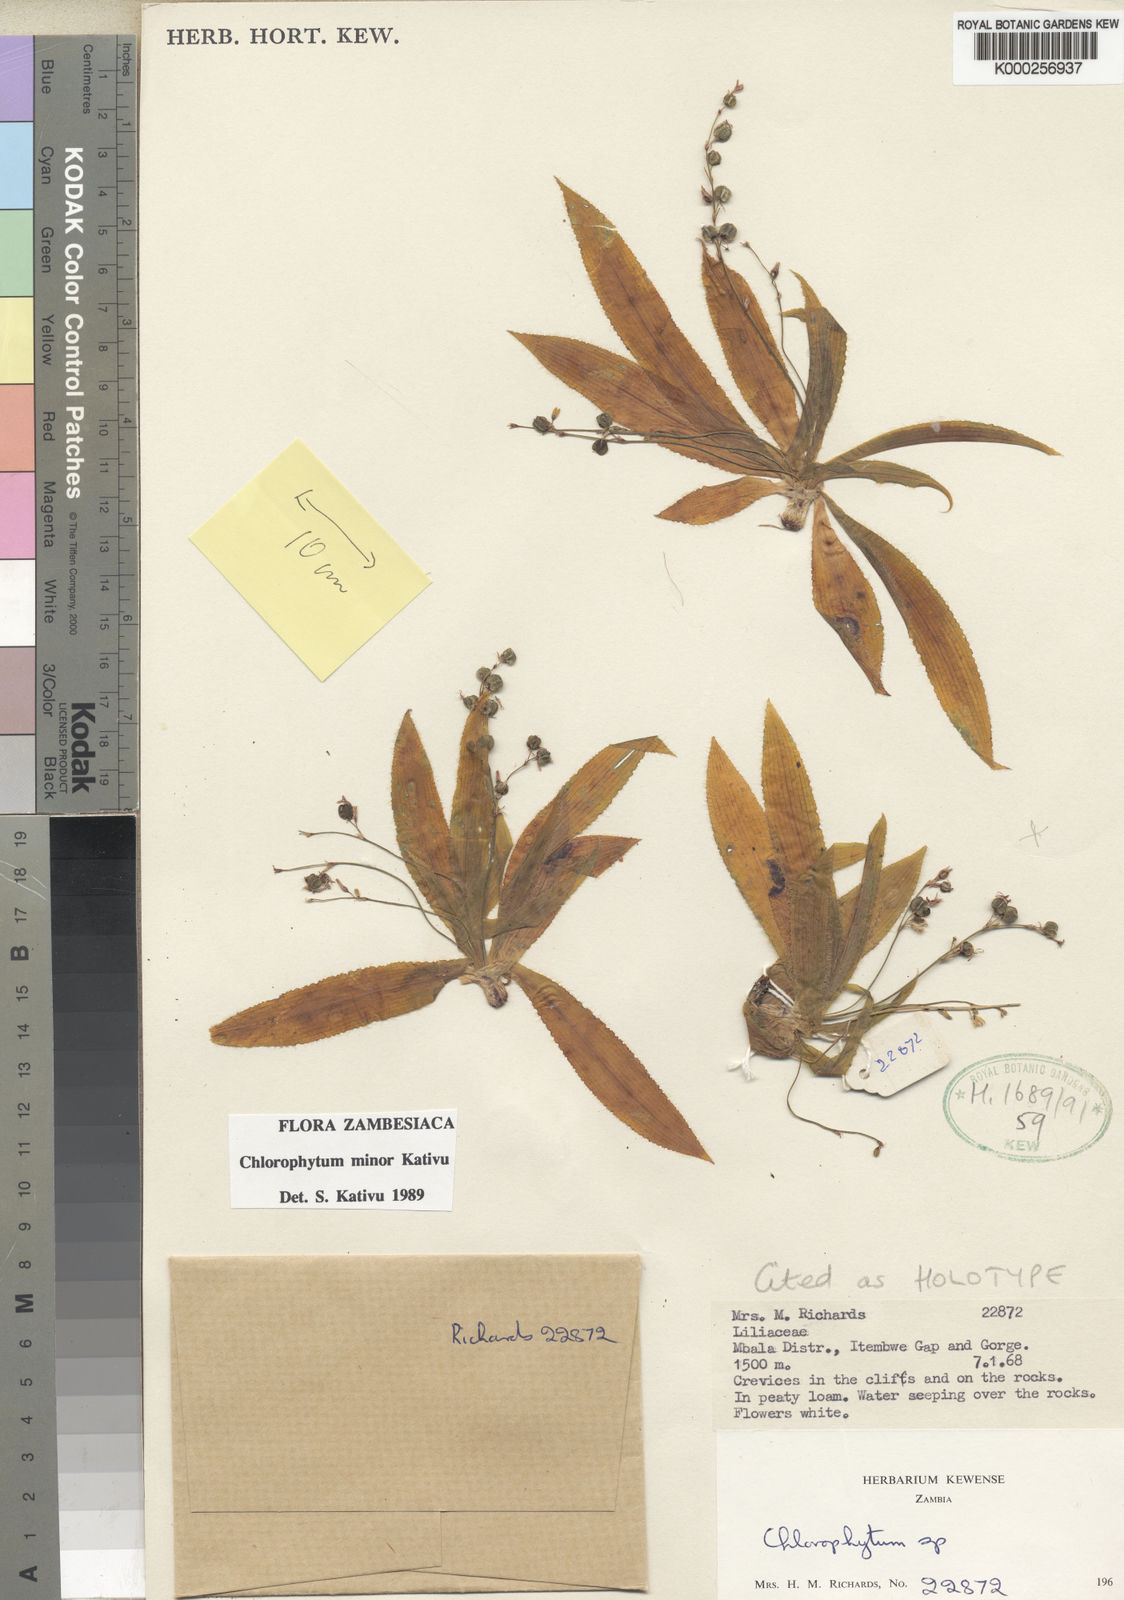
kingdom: Plantae
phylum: Tracheophyta
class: Liliopsida
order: Asparagales
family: Asparagaceae
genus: Chlorophytum
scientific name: Chlorophytum minor
